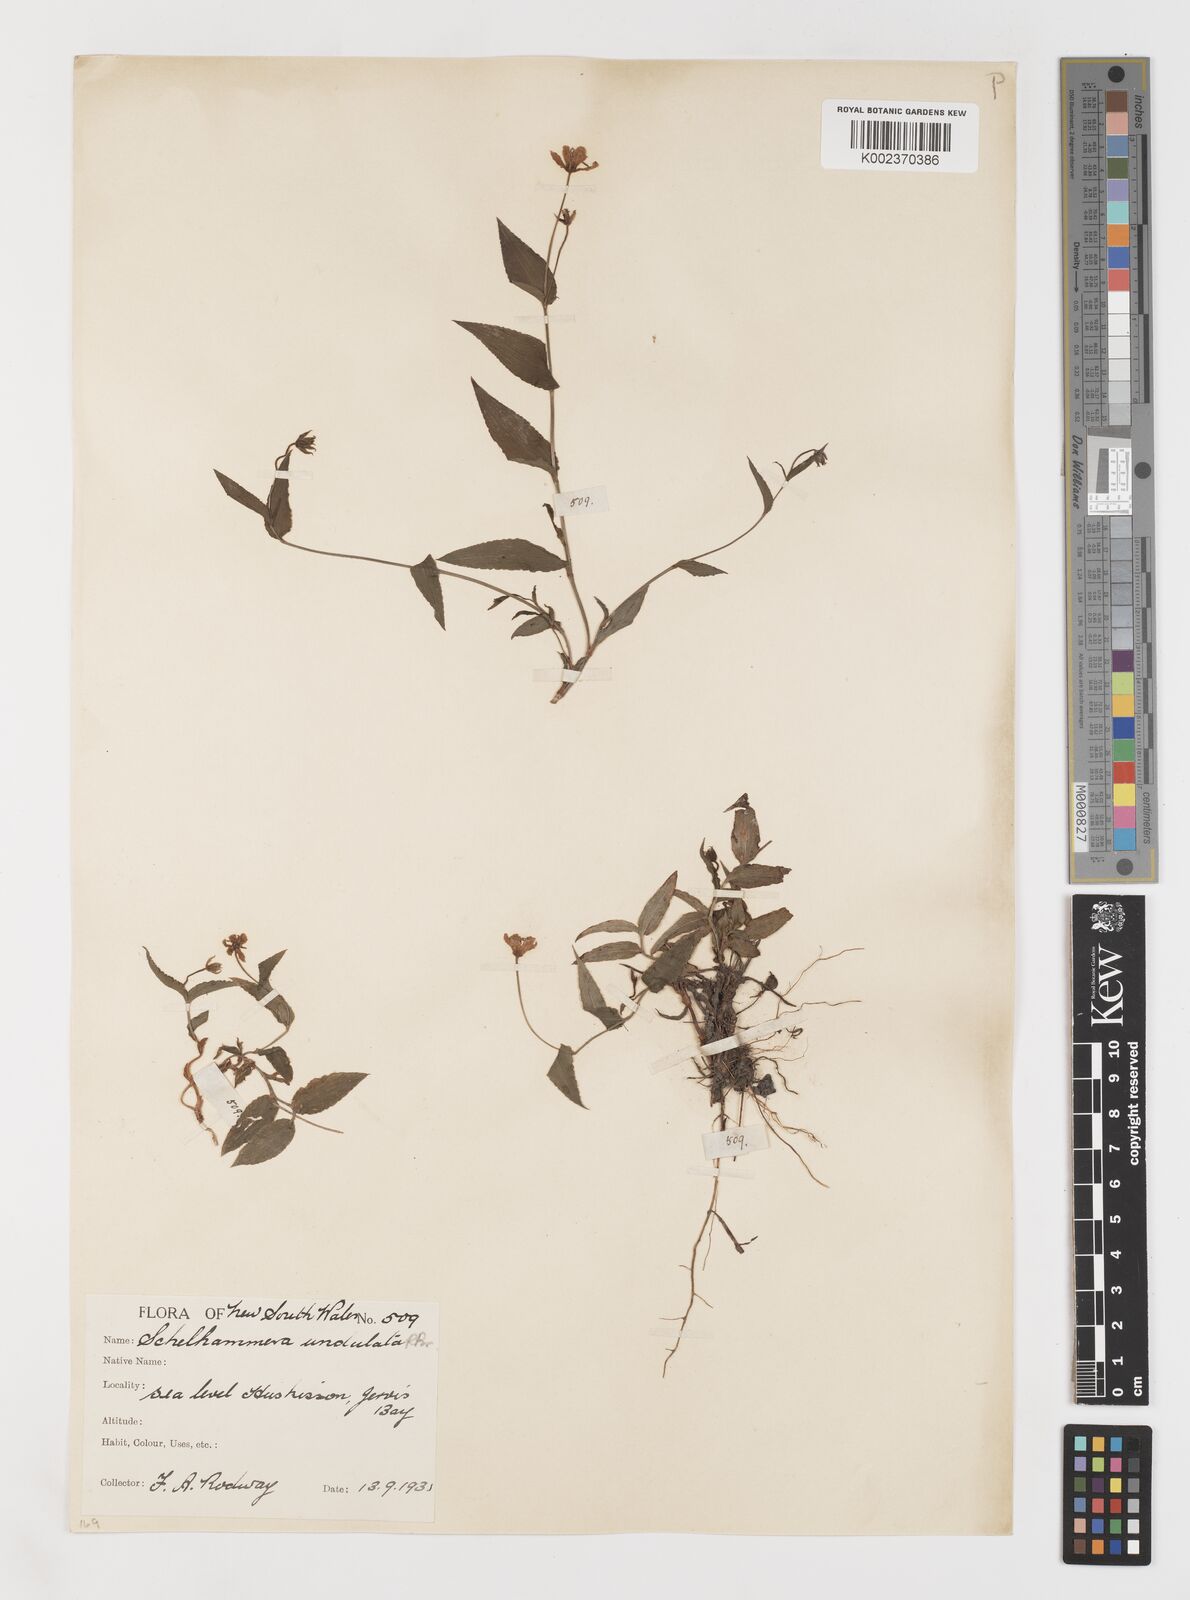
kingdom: Plantae
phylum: Tracheophyta
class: Liliopsida
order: Liliales
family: Colchicaceae
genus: Schelhammera
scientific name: Schelhammera undulata
